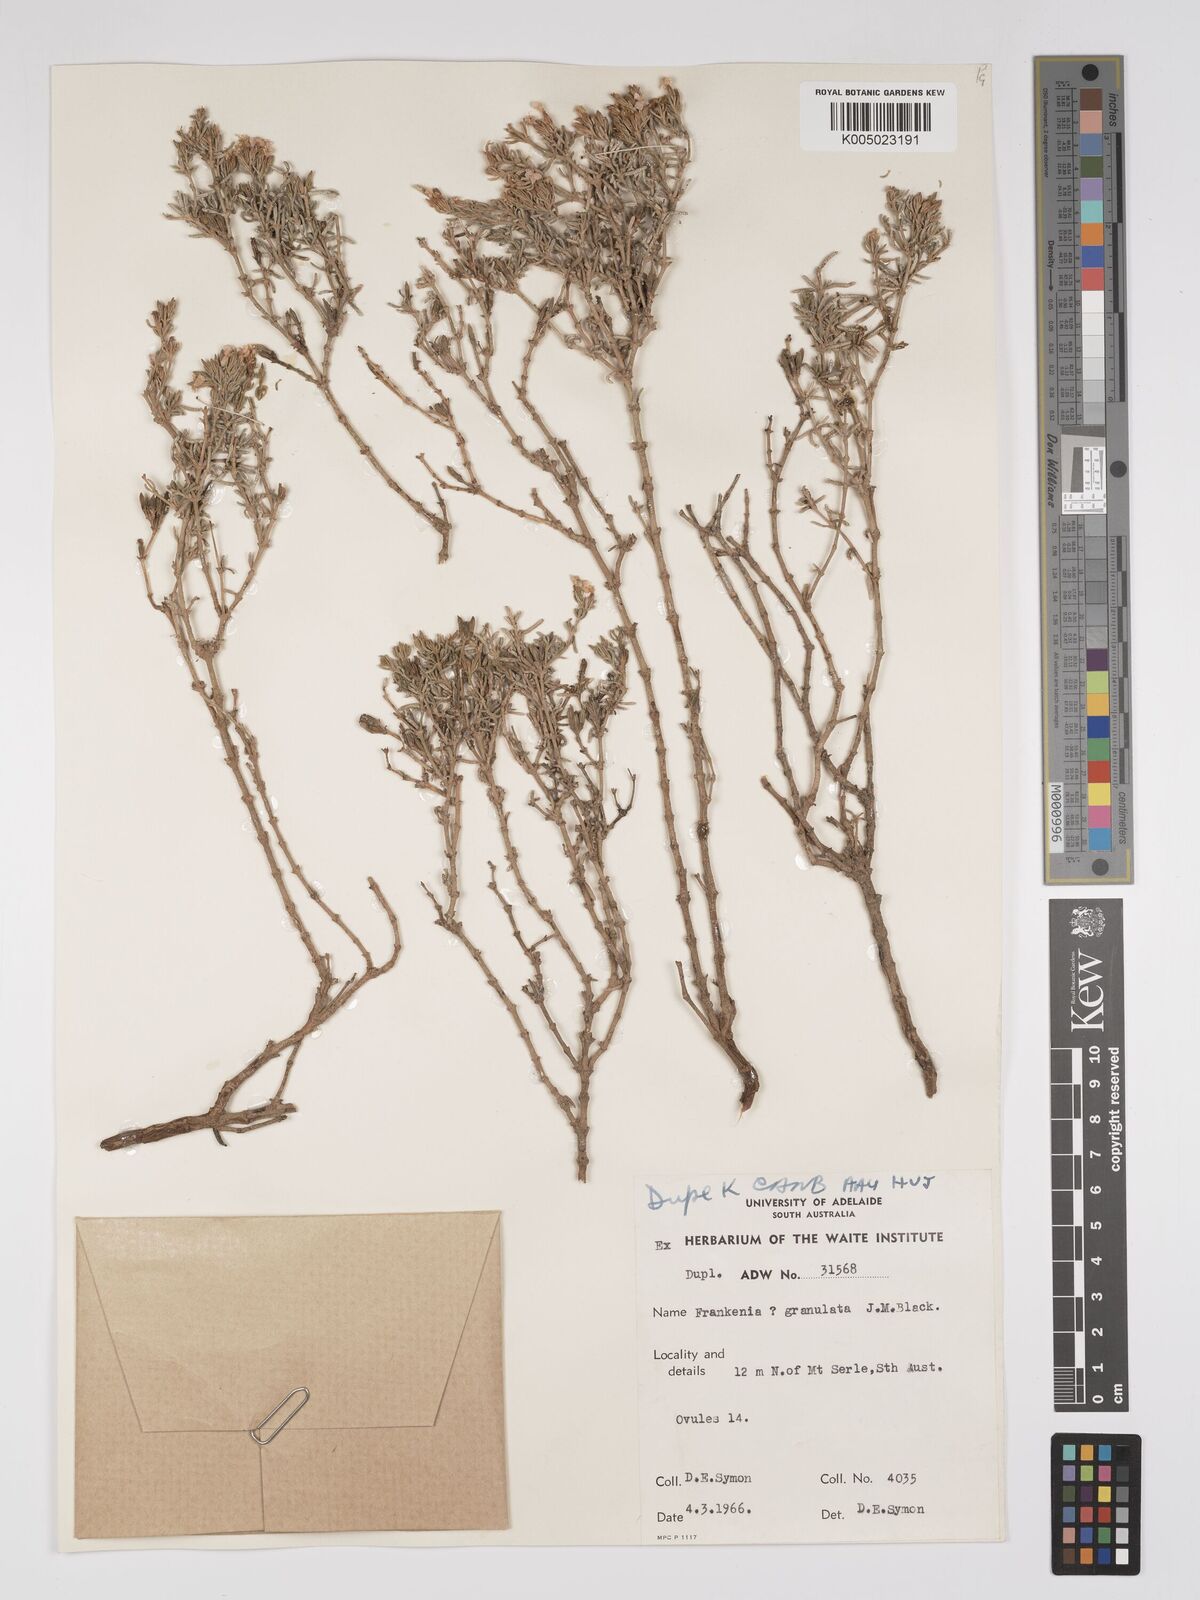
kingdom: Plantae
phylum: Tracheophyta
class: Magnoliopsida
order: Caryophyllales
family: Frankeniaceae
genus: Frankenia
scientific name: Frankenia subteres
